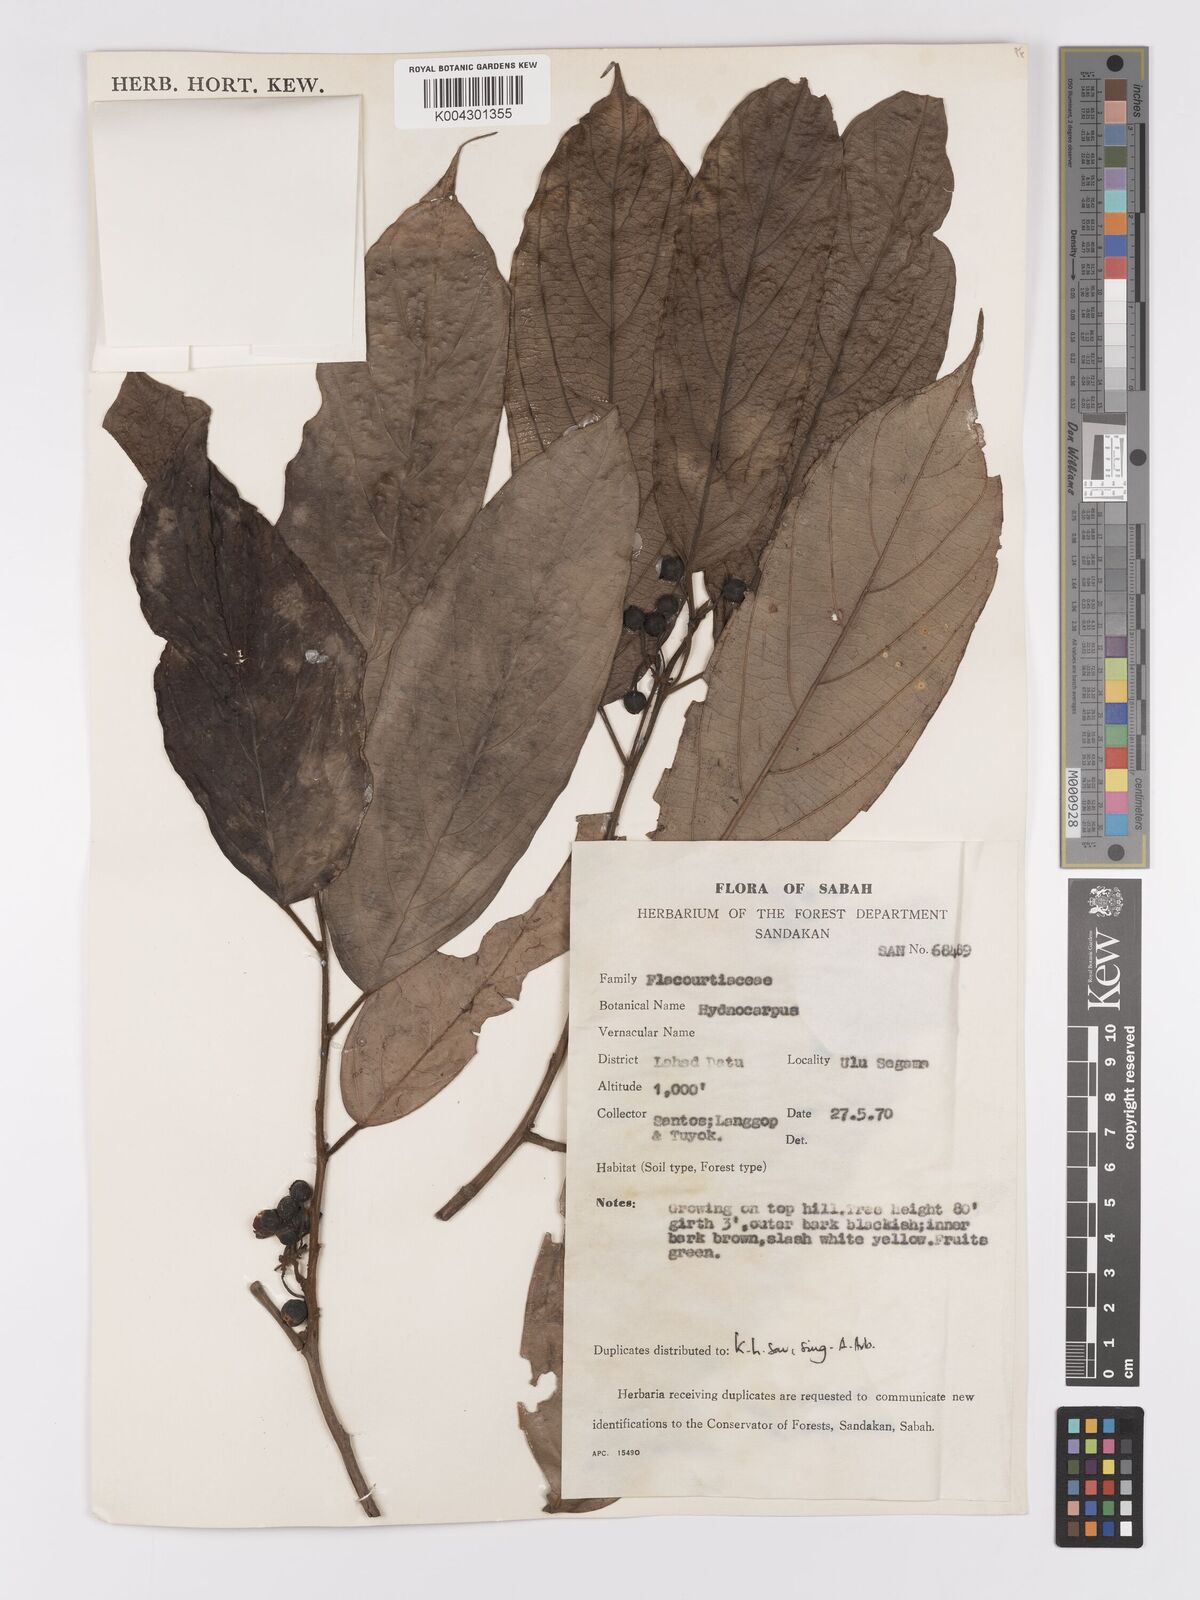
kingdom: Plantae
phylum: Tracheophyta
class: Magnoliopsida
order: Malpighiales
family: Achariaceae
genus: Hydnocarpus
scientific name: Hydnocarpus
